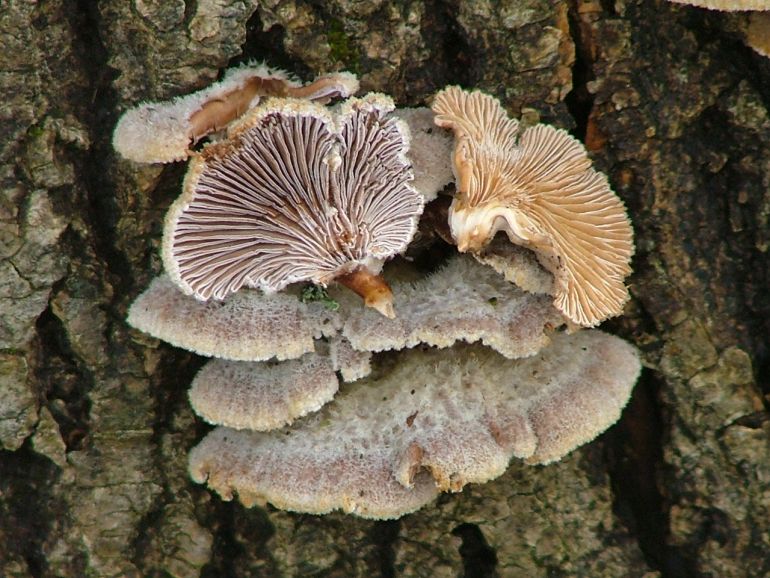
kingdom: Fungi
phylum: Basidiomycota
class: Agaricomycetes
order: Agaricales
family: Schizophyllaceae
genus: Schizophyllum
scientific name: Schizophyllum commune
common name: kløvblad
